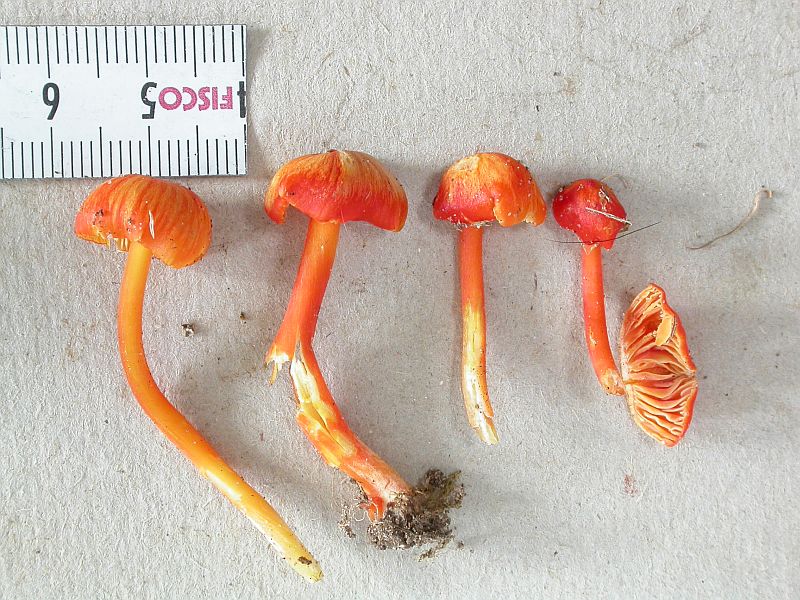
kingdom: Fungi
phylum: Basidiomycota
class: Agaricomycetes
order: Agaricales
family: Hygrophoraceae
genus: Hygrocybe
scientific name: Hygrocybe subpapillata
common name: papil-vokshat
